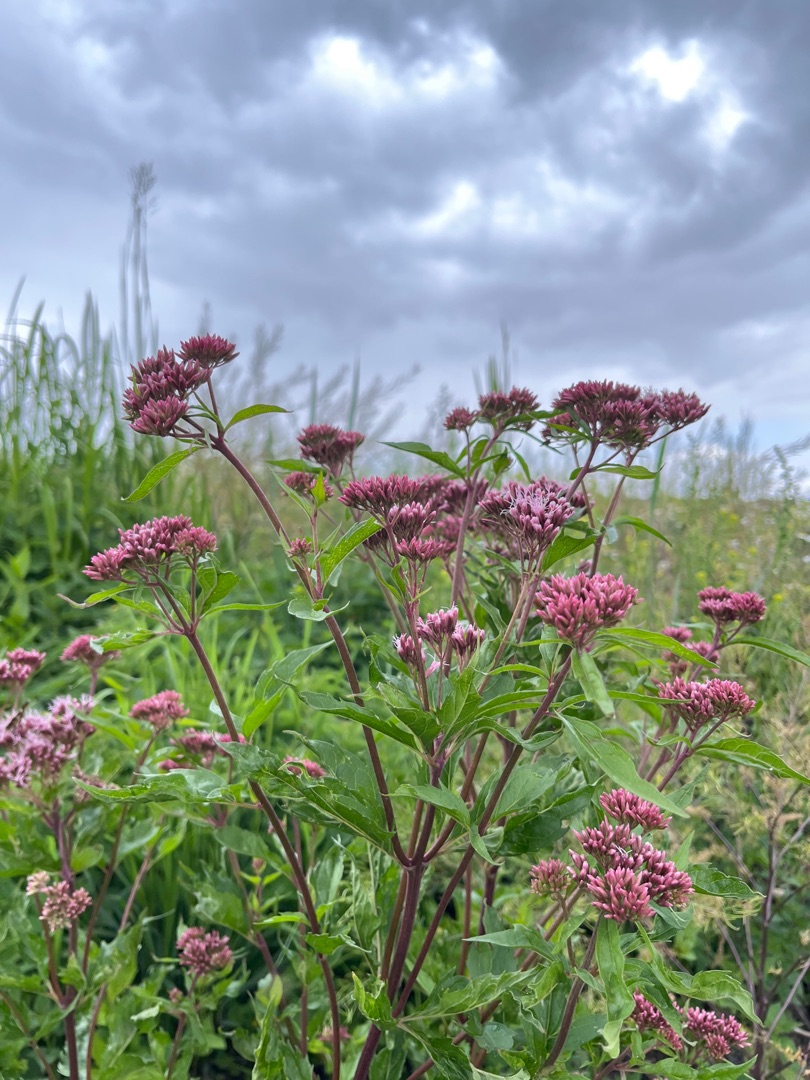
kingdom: Plantae
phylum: Tracheophyta
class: Magnoliopsida
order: Asterales
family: Asteraceae
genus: Eupatorium
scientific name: Eupatorium cannabinum
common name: Hjortetrøst
